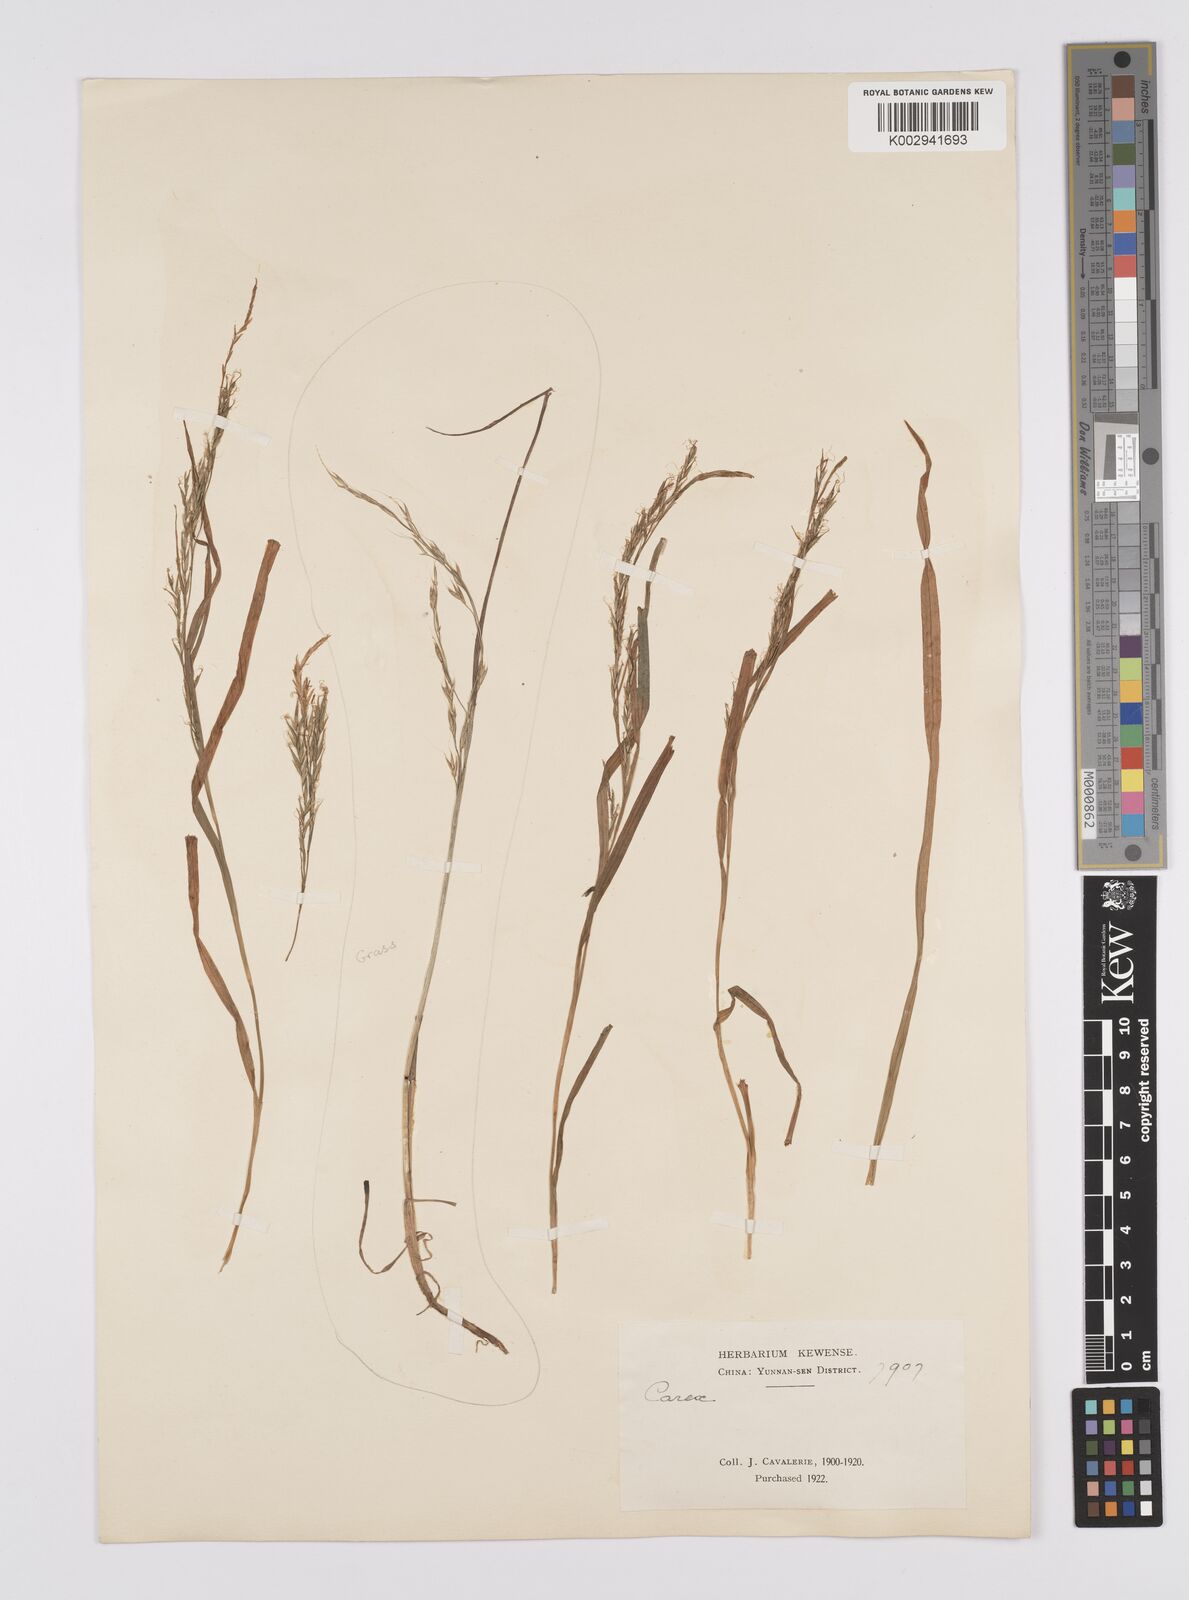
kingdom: Plantae
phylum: Tracheophyta
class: Liliopsida
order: Poales
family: Cyperaceae
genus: Carex
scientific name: Carex bostrychostigma
